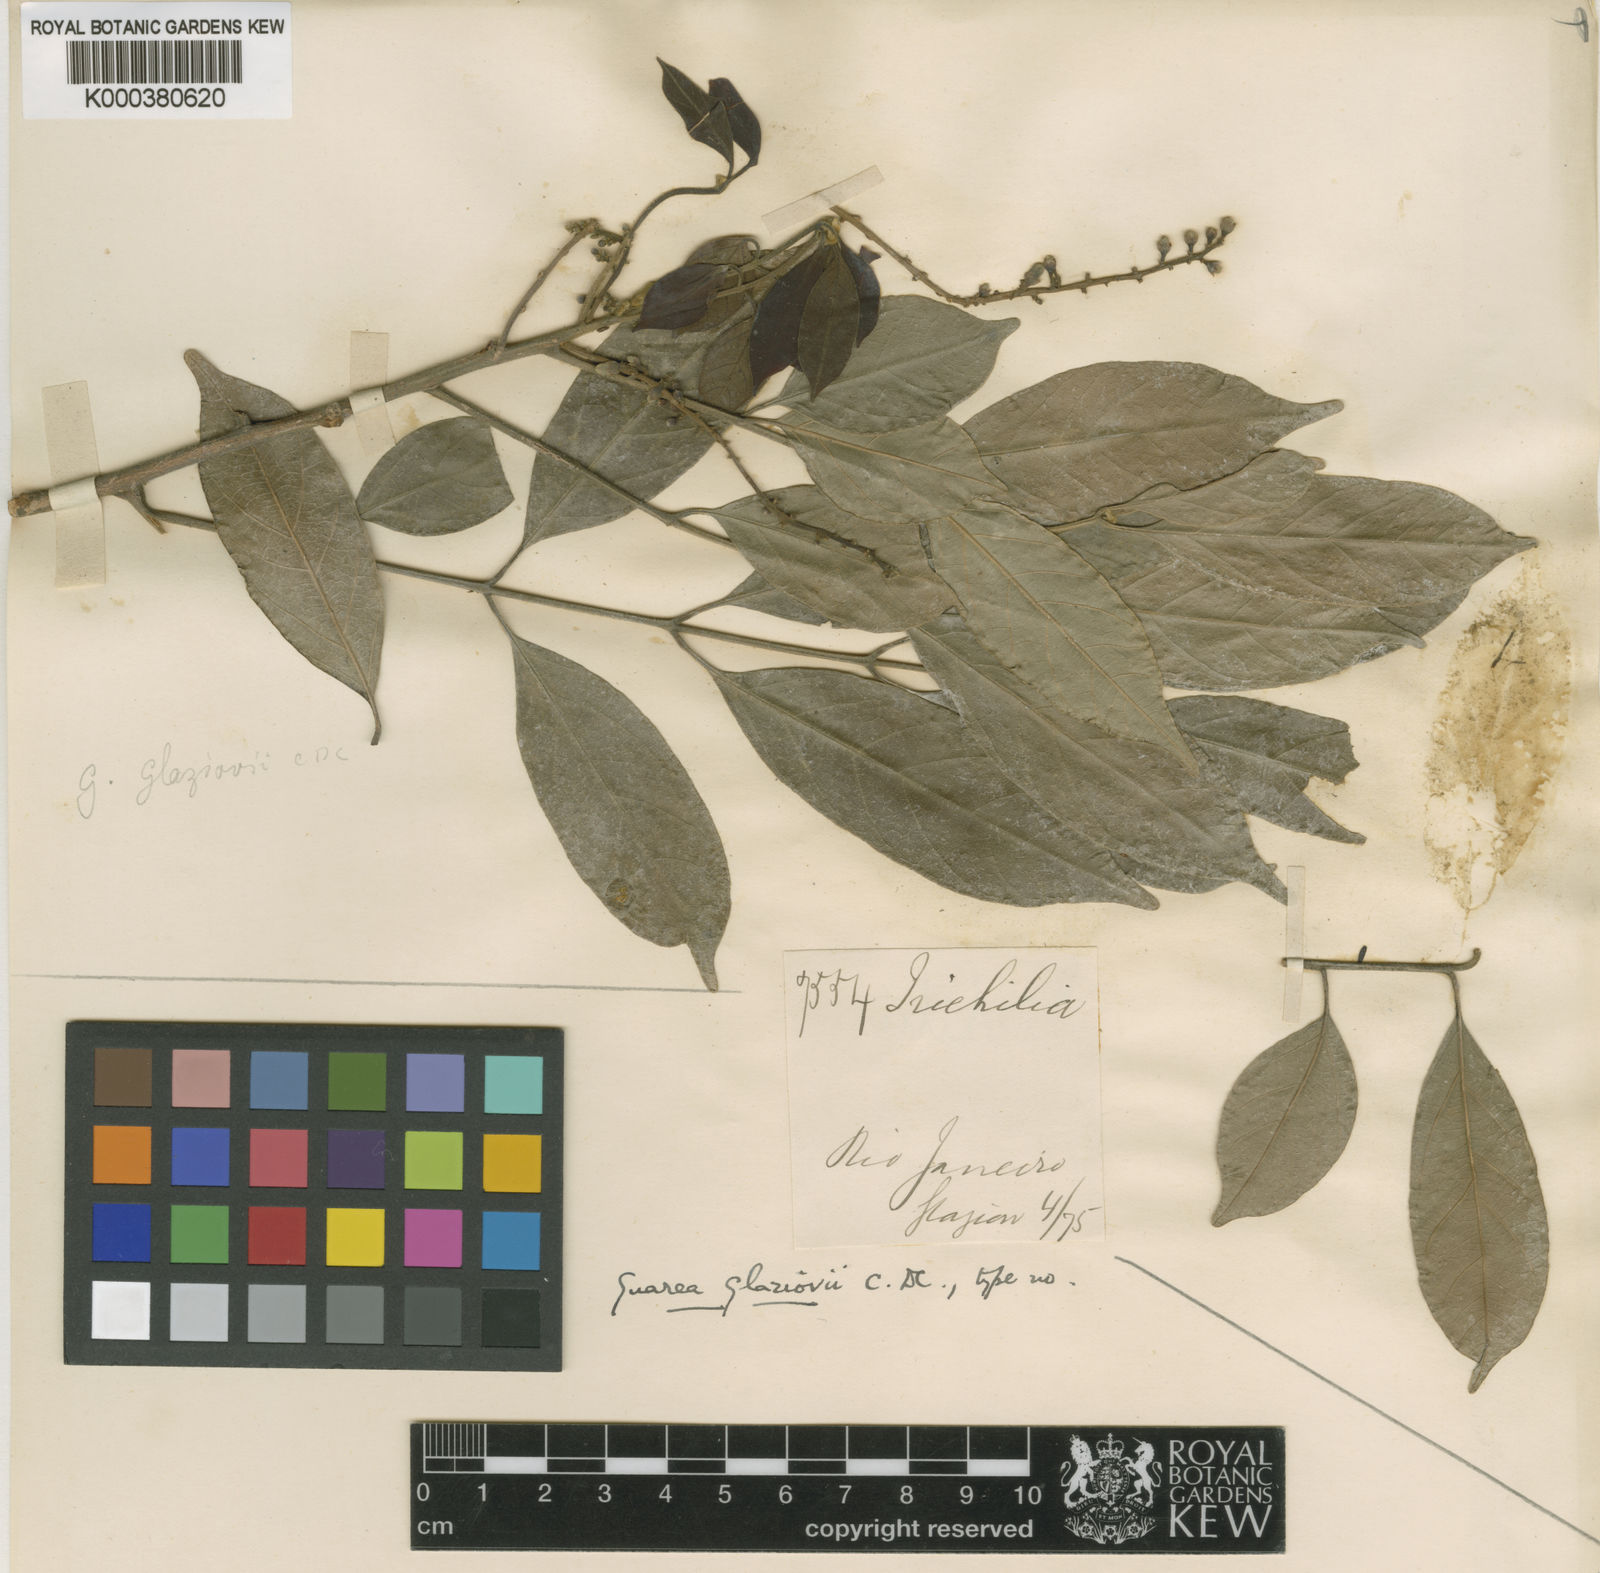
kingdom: Plantae
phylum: Tracheophyta
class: Magnoliopsida
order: Sapindales
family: Meliaceae
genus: Guarea
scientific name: Guarea macrophylla
